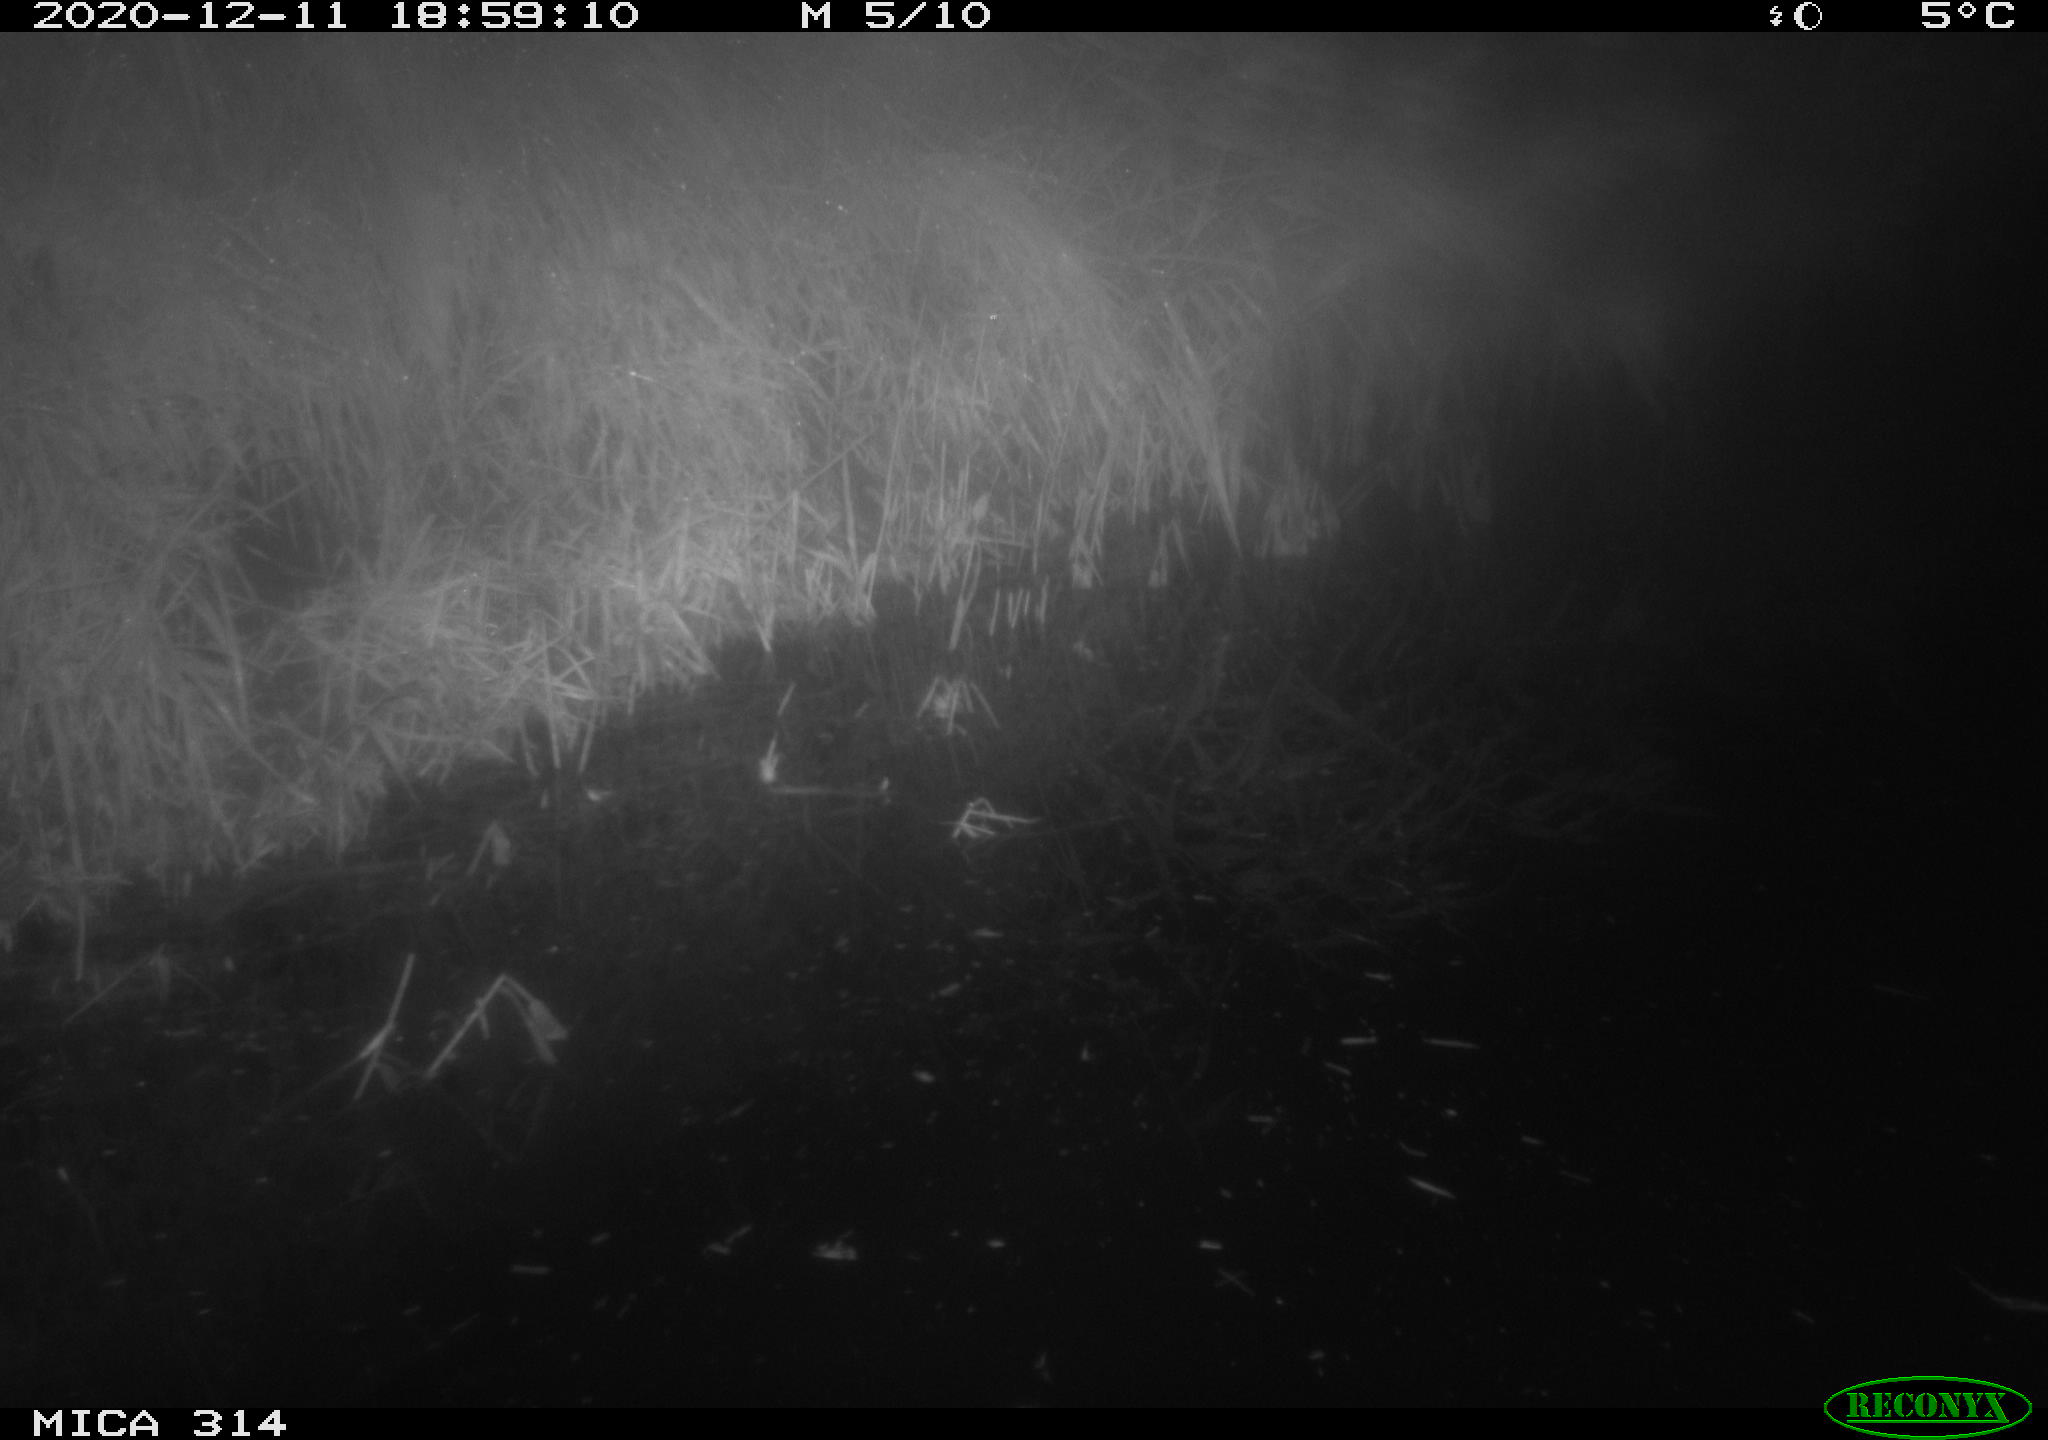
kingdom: Animalia
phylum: Chordata
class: Mammalia
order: Rodentia
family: Muridae
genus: Rattus
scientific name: Rattus norvegicus
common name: Brown rat
